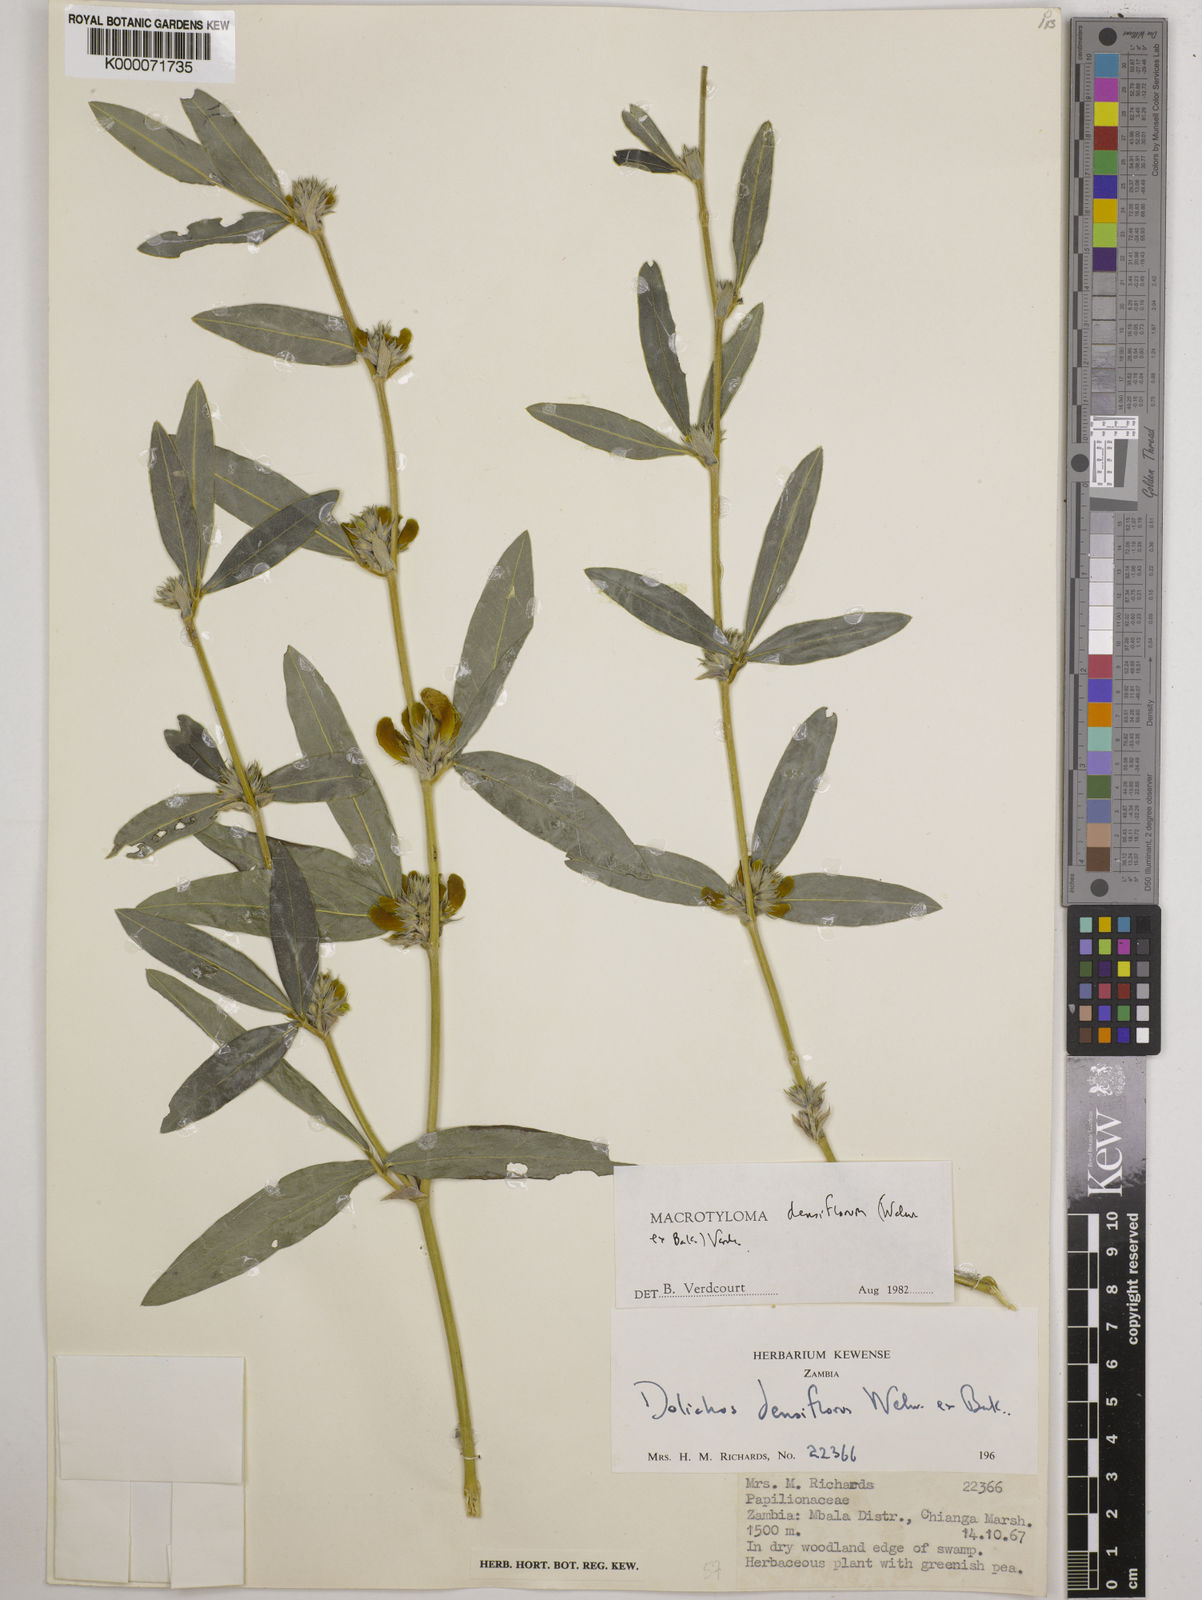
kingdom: Plantae
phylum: Tracheophyta
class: Magnoliopsida
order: Fabales
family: Fabaceae
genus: Macrotyloma
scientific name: Macrotyloma densiflorum
